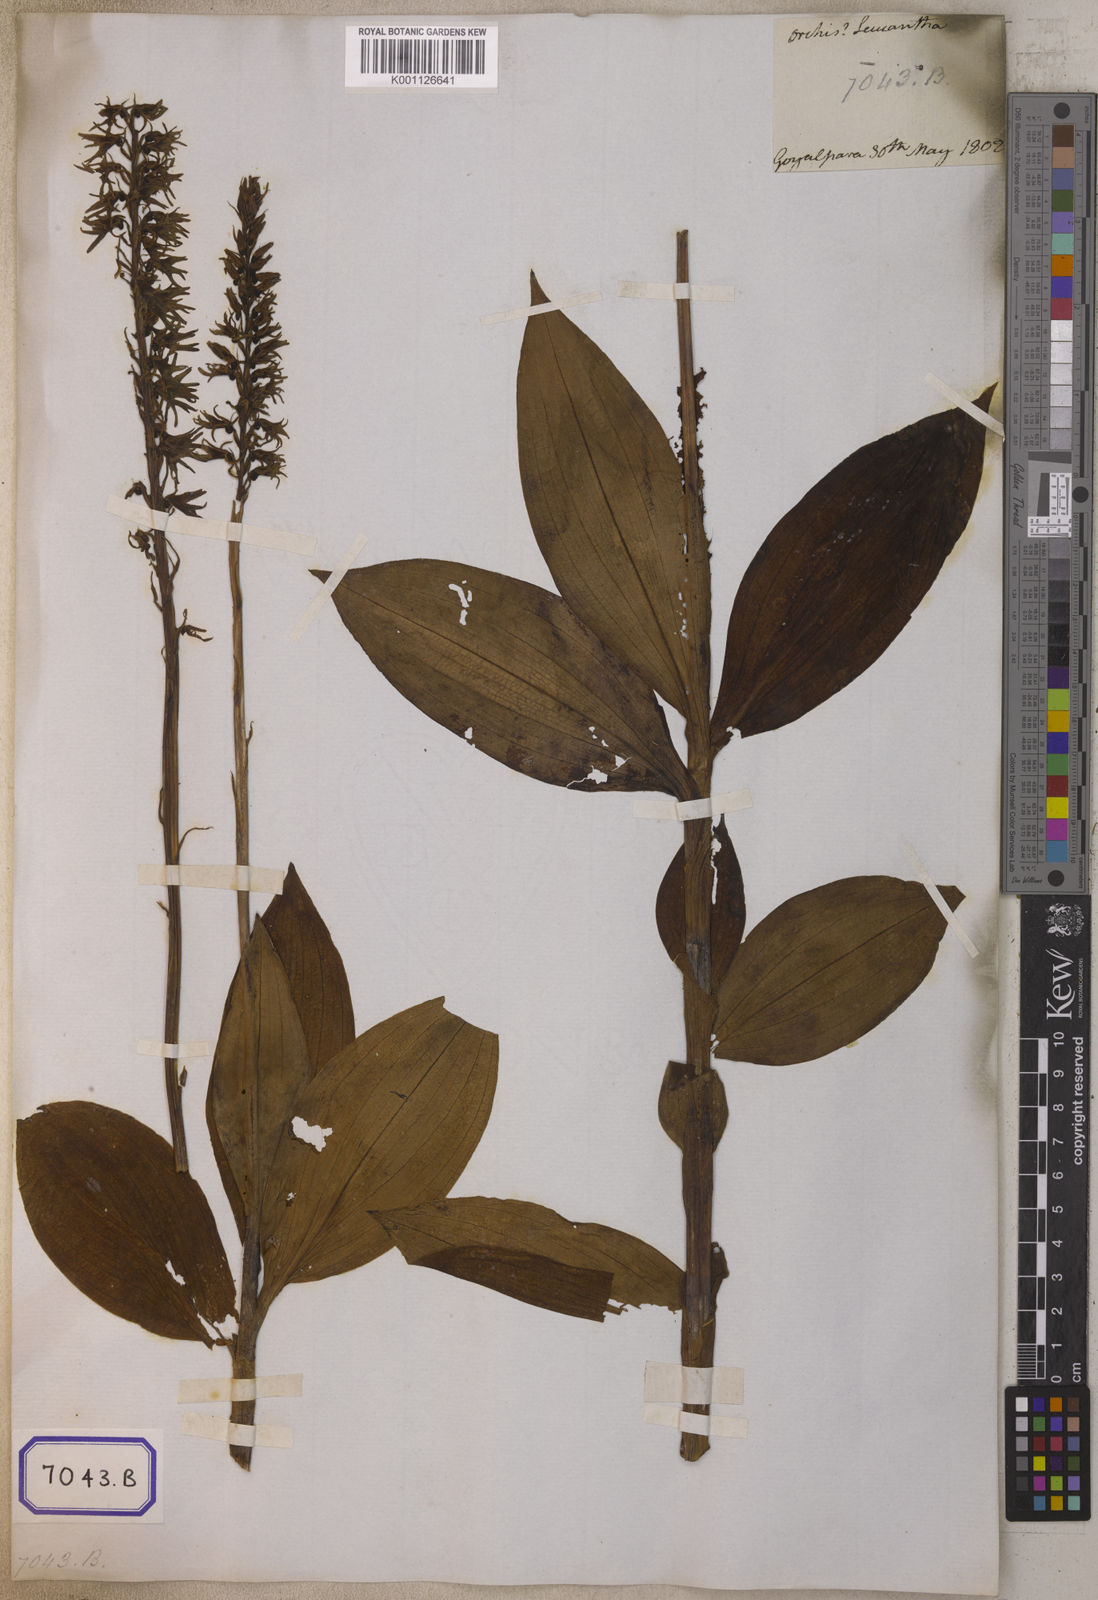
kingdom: Plantae
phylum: Tracheophyta
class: Liliopsida
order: Asparagales
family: Orchidaceae
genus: Platanthera
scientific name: Platanthera
